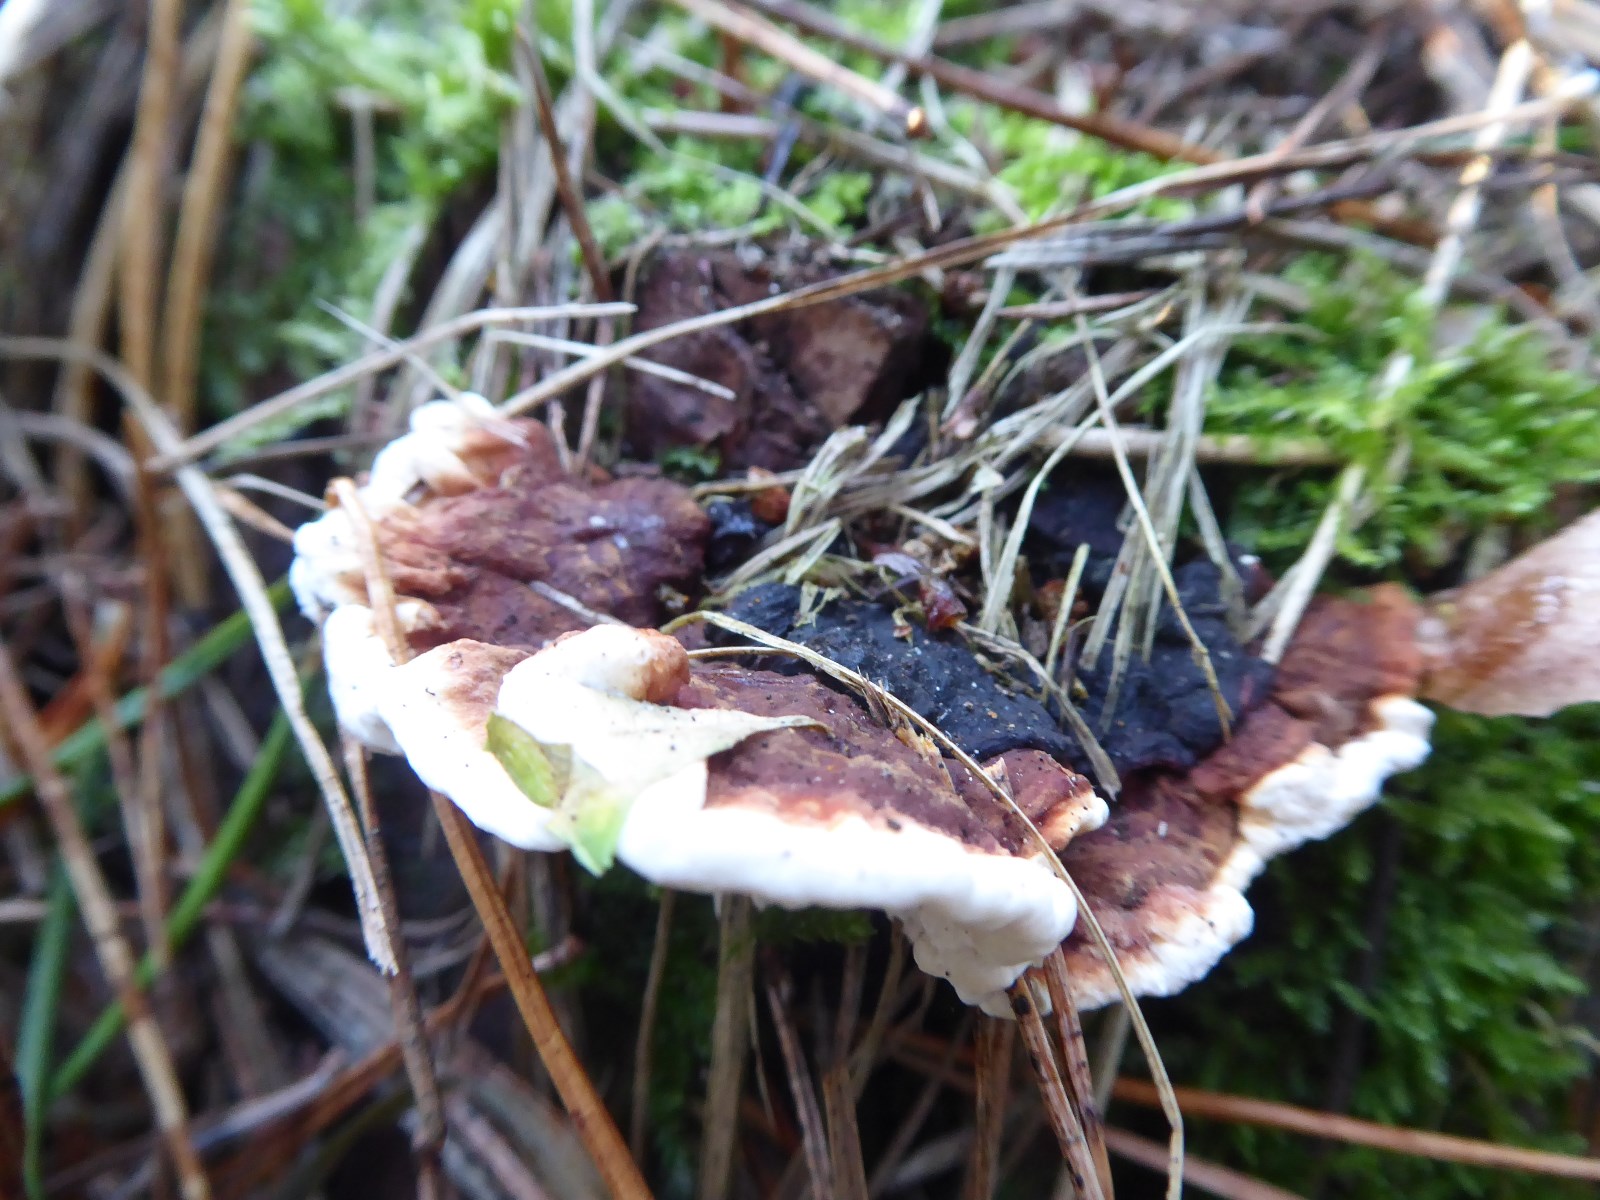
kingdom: Fungi
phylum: Basidiomycota
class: Agaricomycetes
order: Russulales
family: Bondarzewiaceae
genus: Heterobasidion
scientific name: Heterobasidion annosum
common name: almindelig rodfordærver
